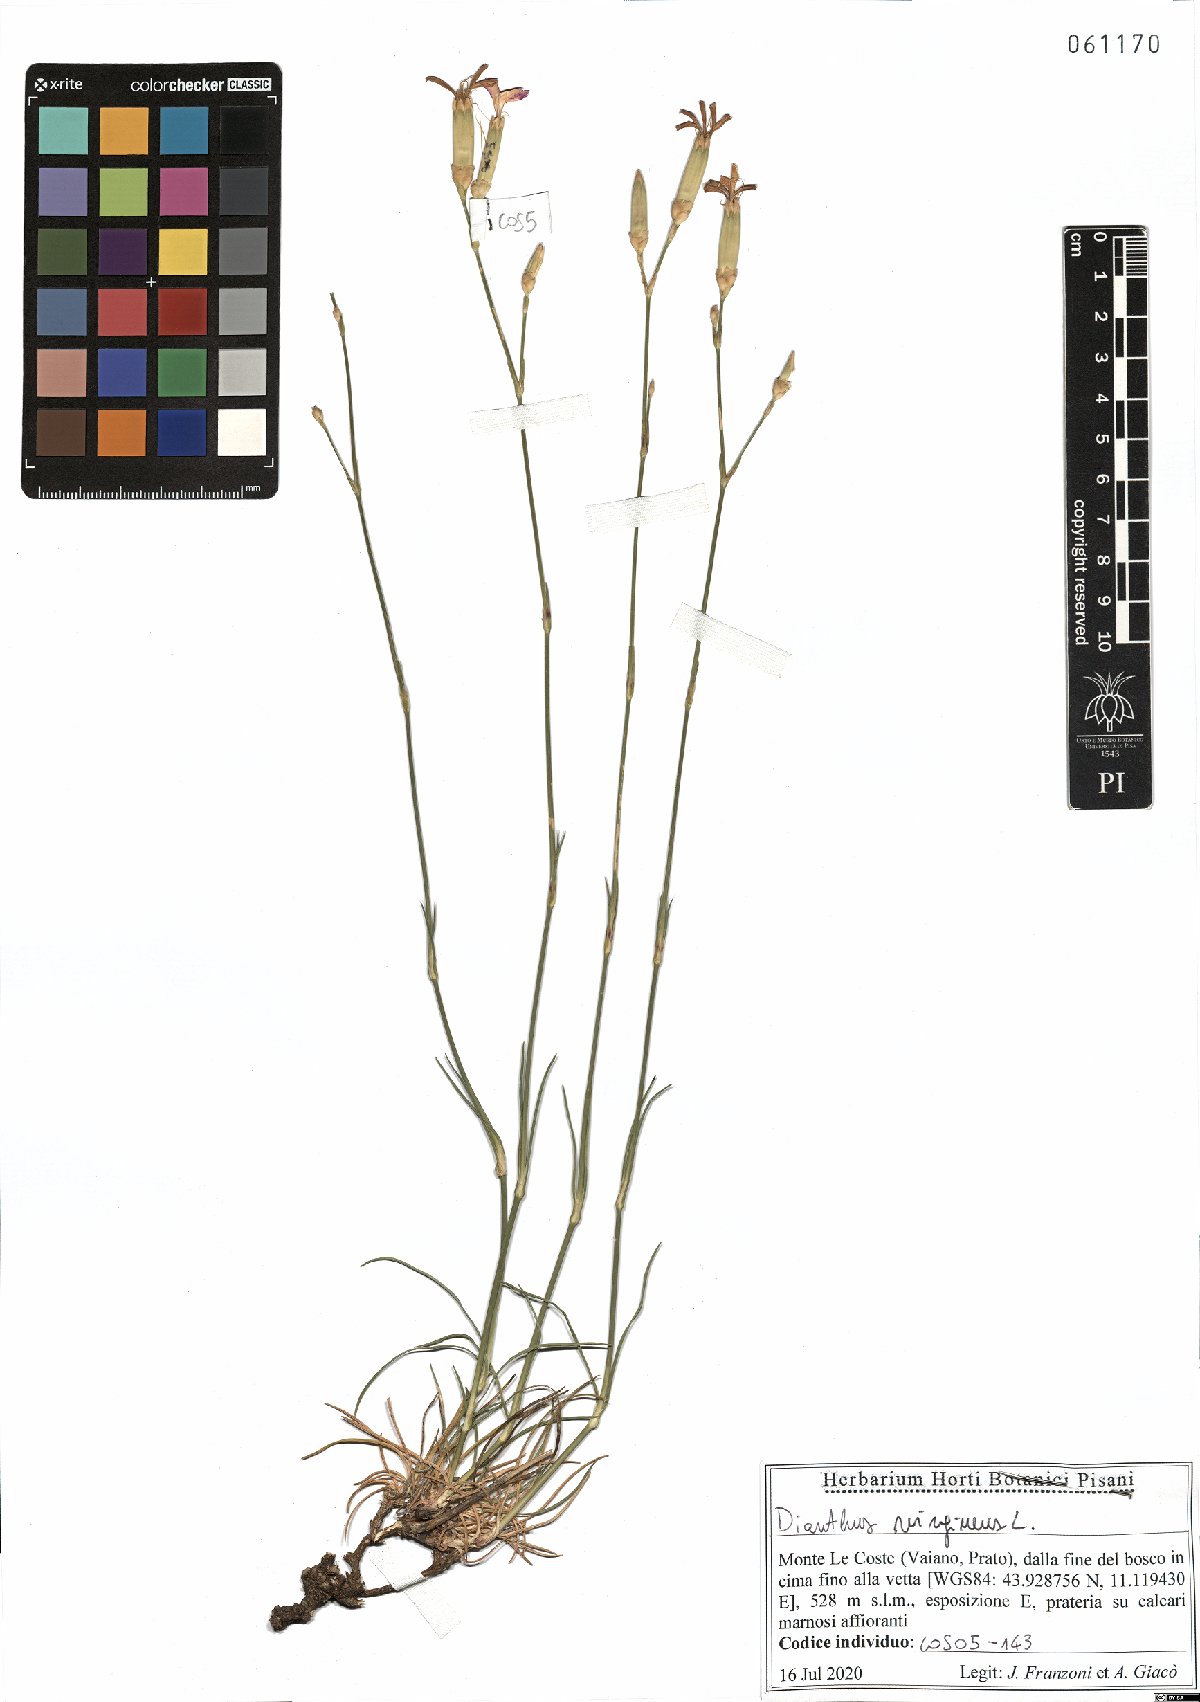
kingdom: Plantae
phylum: Tracheophyta
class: Magnoliopsida
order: Caryophyllales
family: Caryophyllaceae
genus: Dianthus
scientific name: Dianthus virgineus
